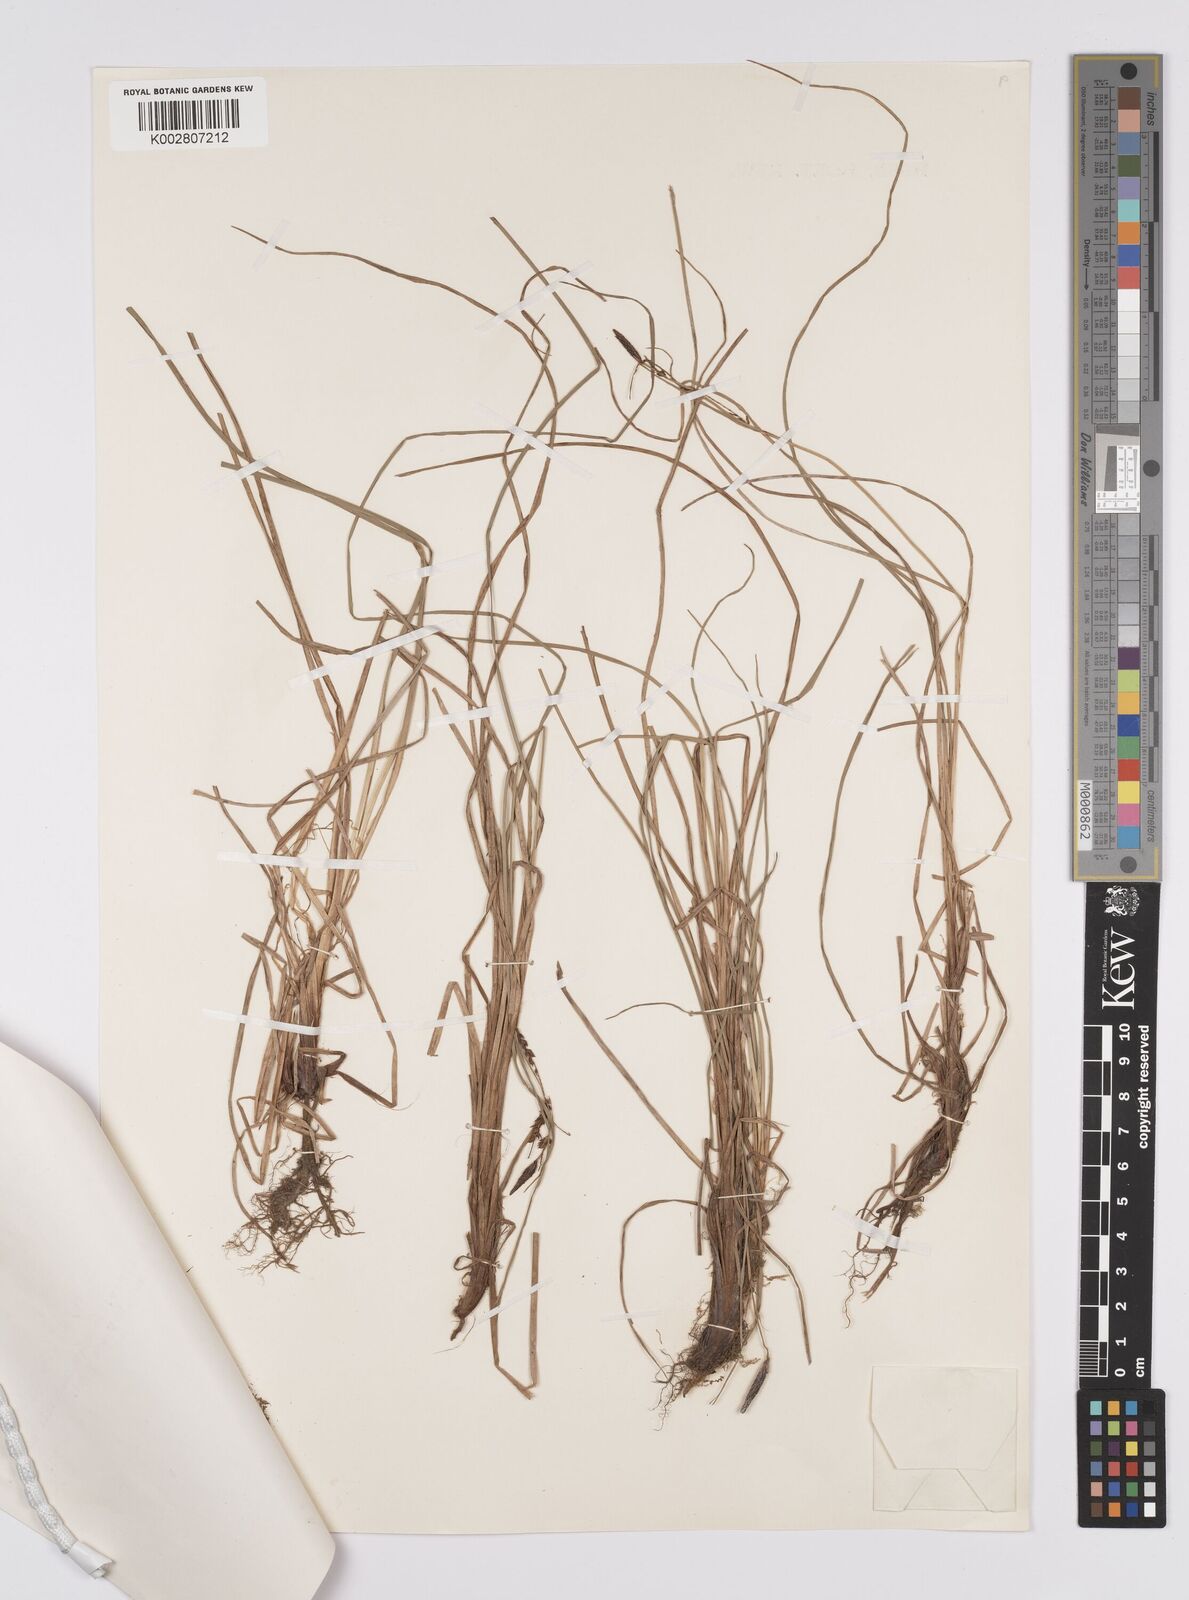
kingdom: Plantae
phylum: Tracheophyta
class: Liliopsida
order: Poales
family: Cyperaceae
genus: Carex
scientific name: Carex gaudichaudiana
